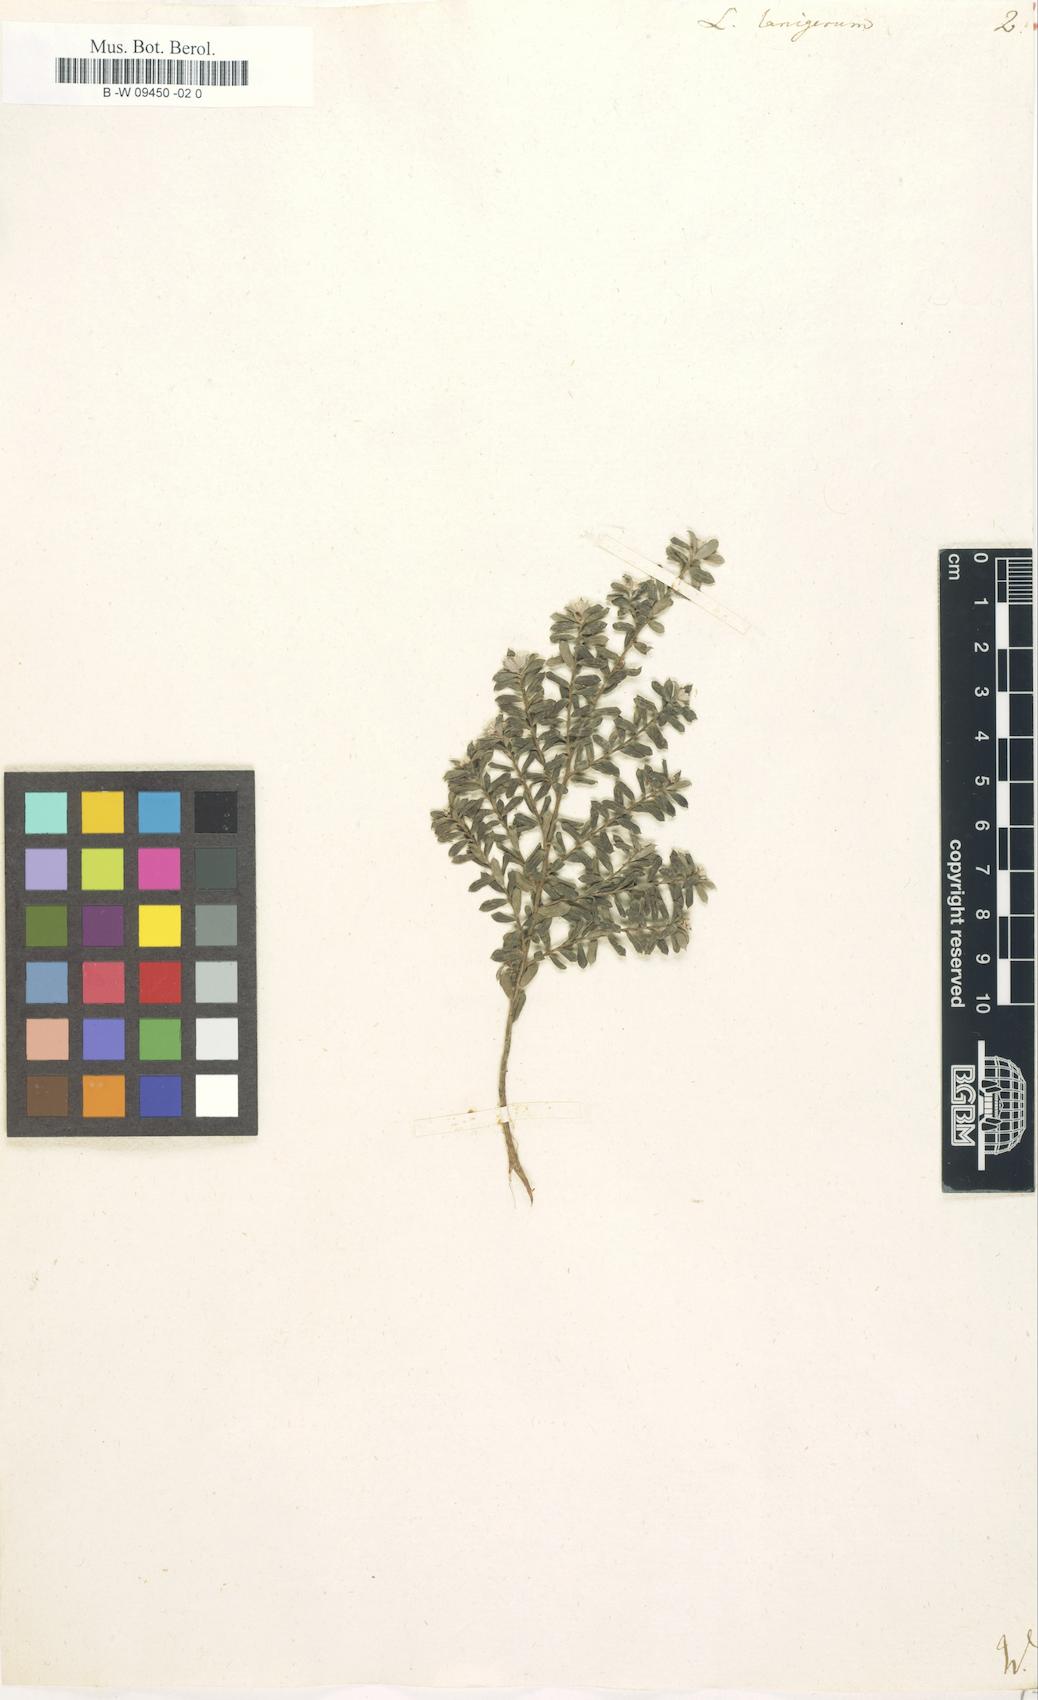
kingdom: Plantae
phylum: Tracheophyta
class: Magnoliopsida
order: Myrtales
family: Myrtaceae
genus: Leptospermum
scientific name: Leptospermum lanigerum
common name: Woolly tea-tree
